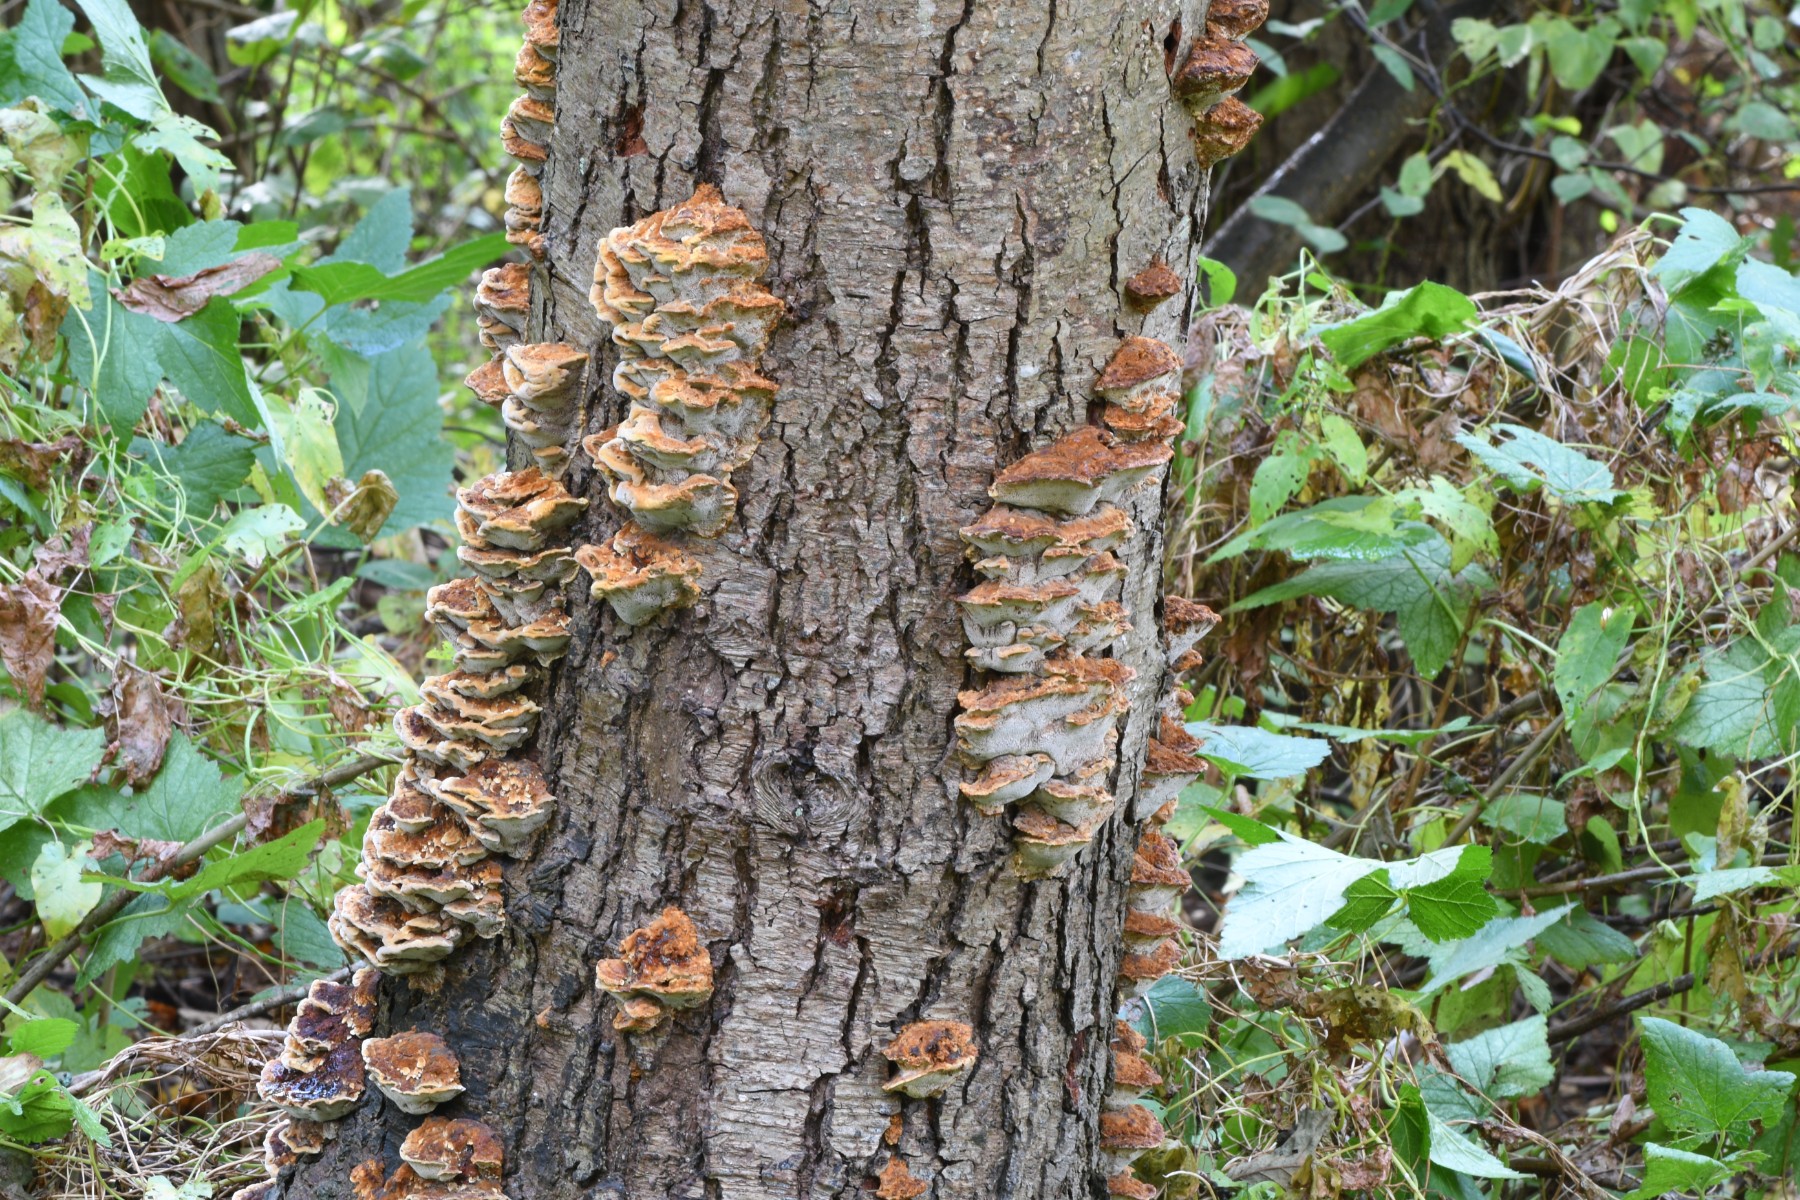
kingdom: Fungi
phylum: Basidiomycota
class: Agaricomycetes
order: Hymenochaetales
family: Hymenochaetaceae
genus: Xanthoporia
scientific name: Xanthoporia radiata
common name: elle-spejlporesvamp
